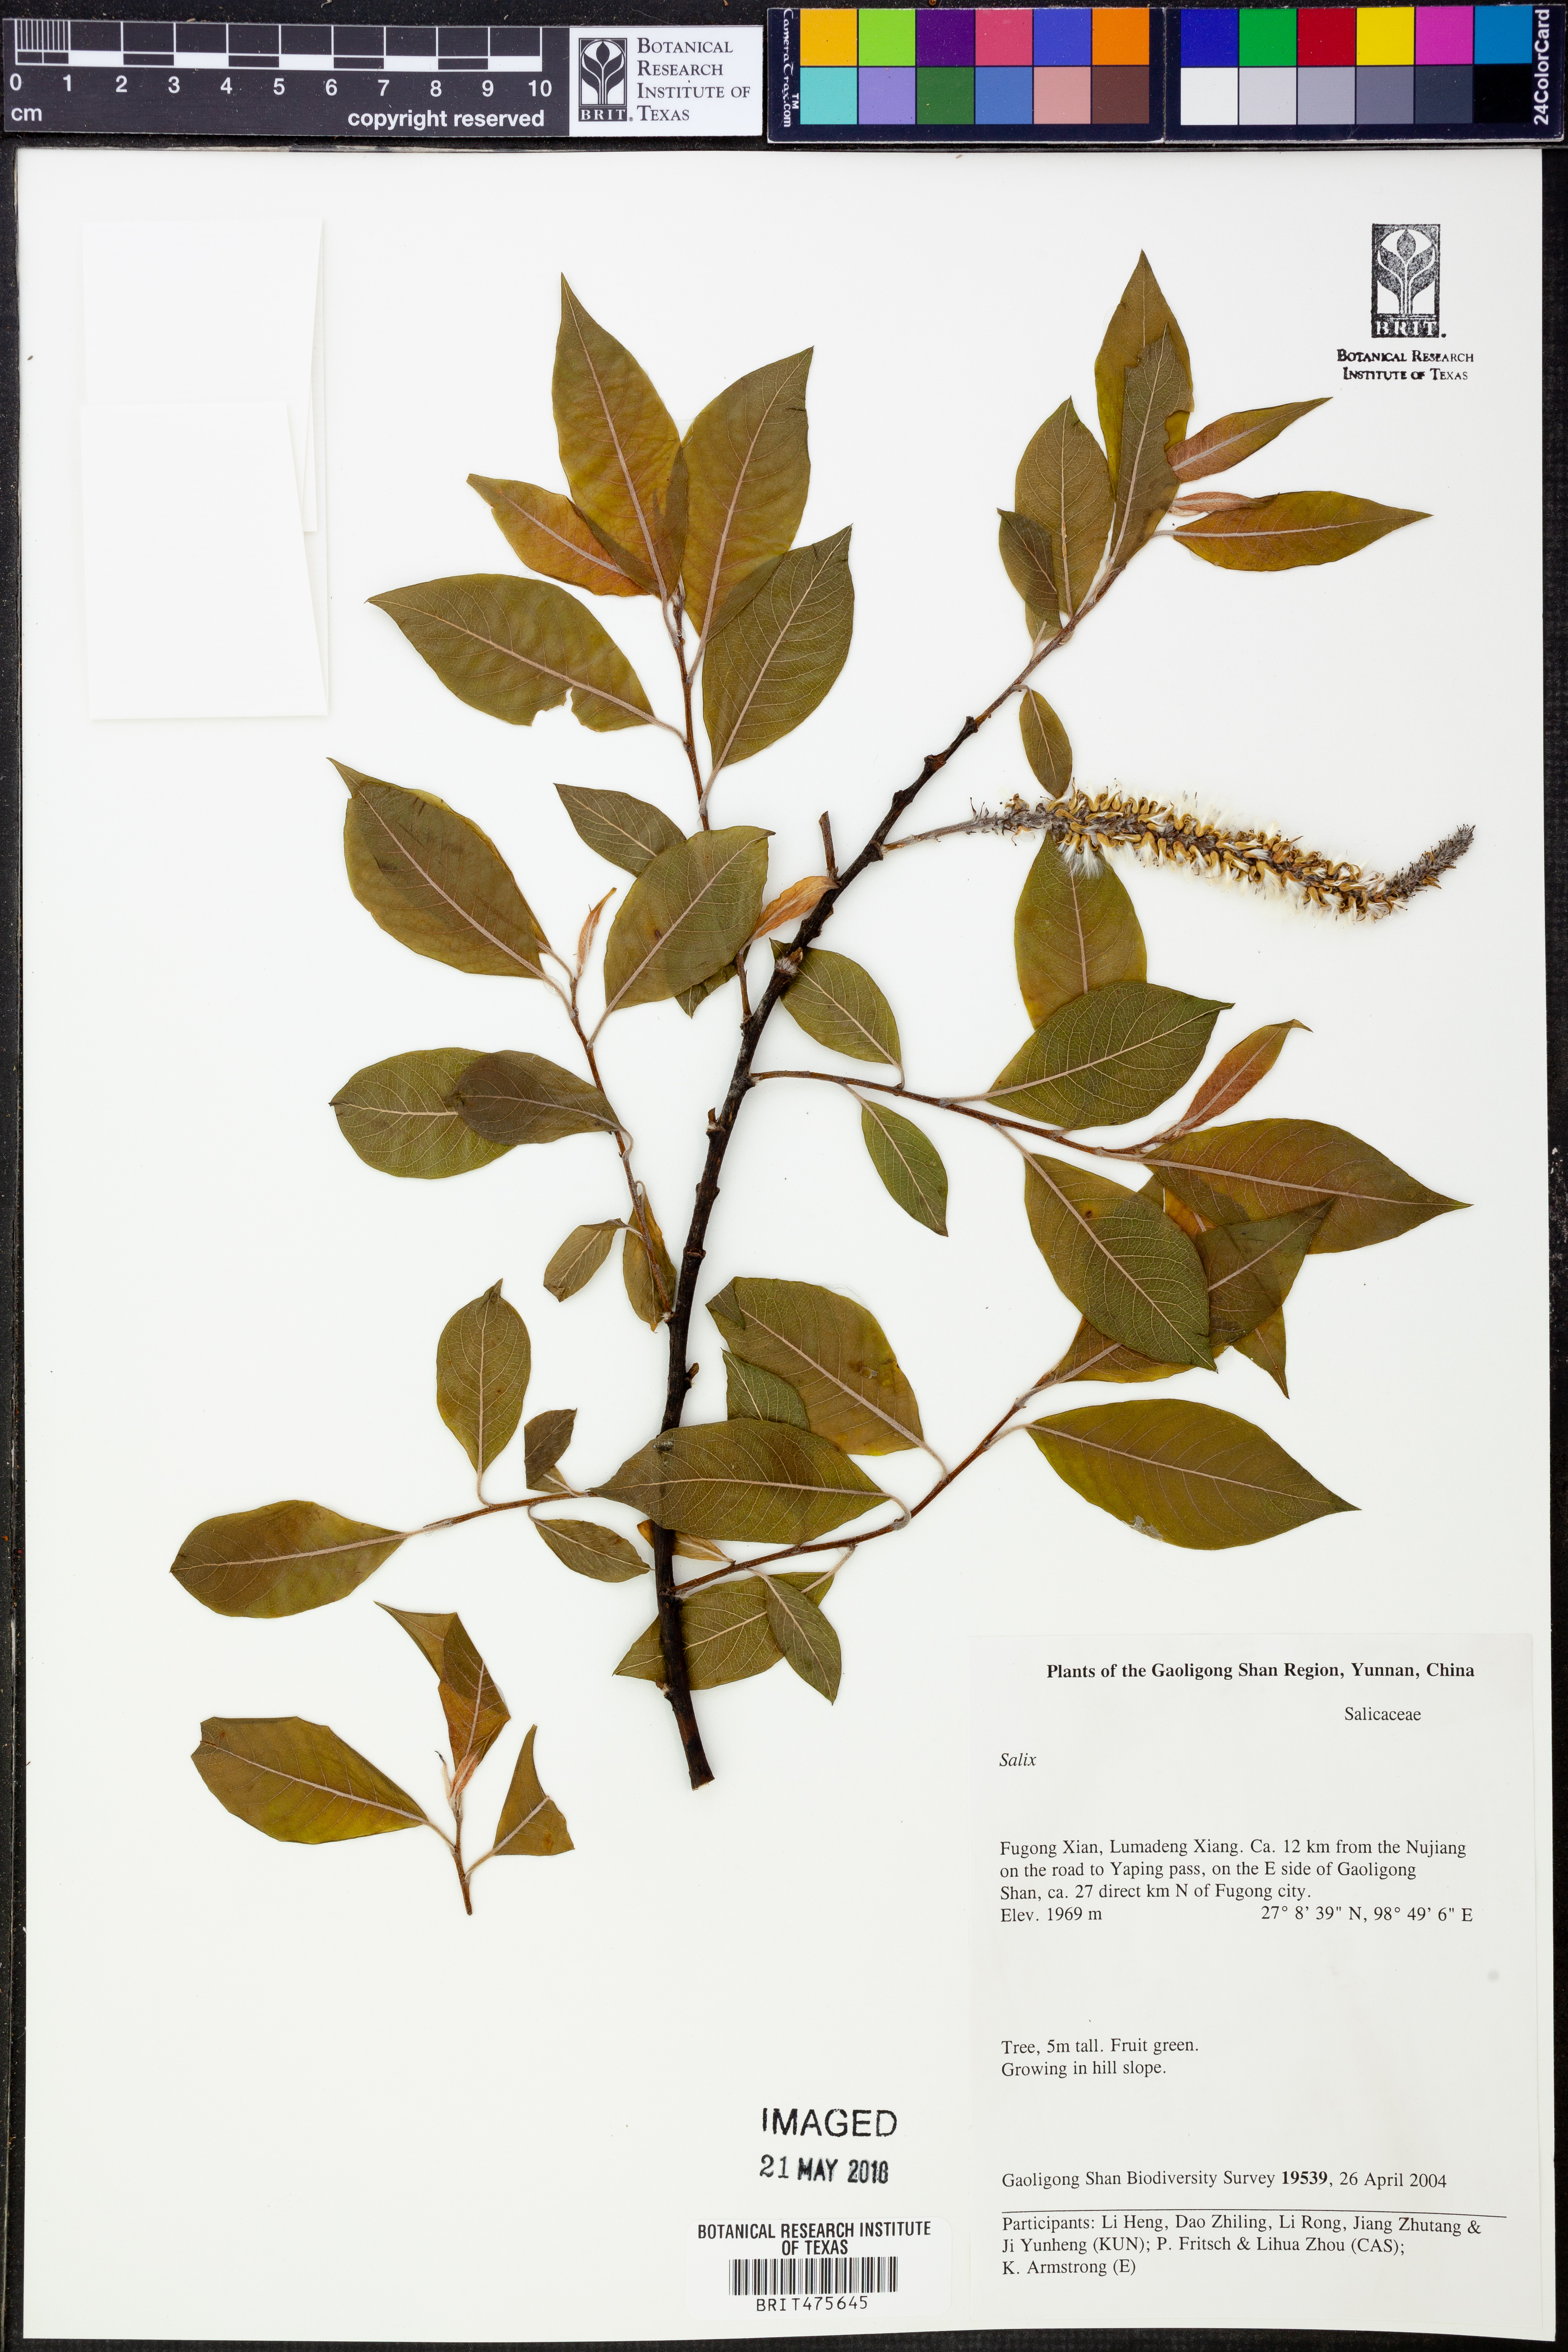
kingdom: Plantae
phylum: Tracheophyta
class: Magnoliopsida
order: Malpighiales
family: Salicaceae
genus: Salix
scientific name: Salix
